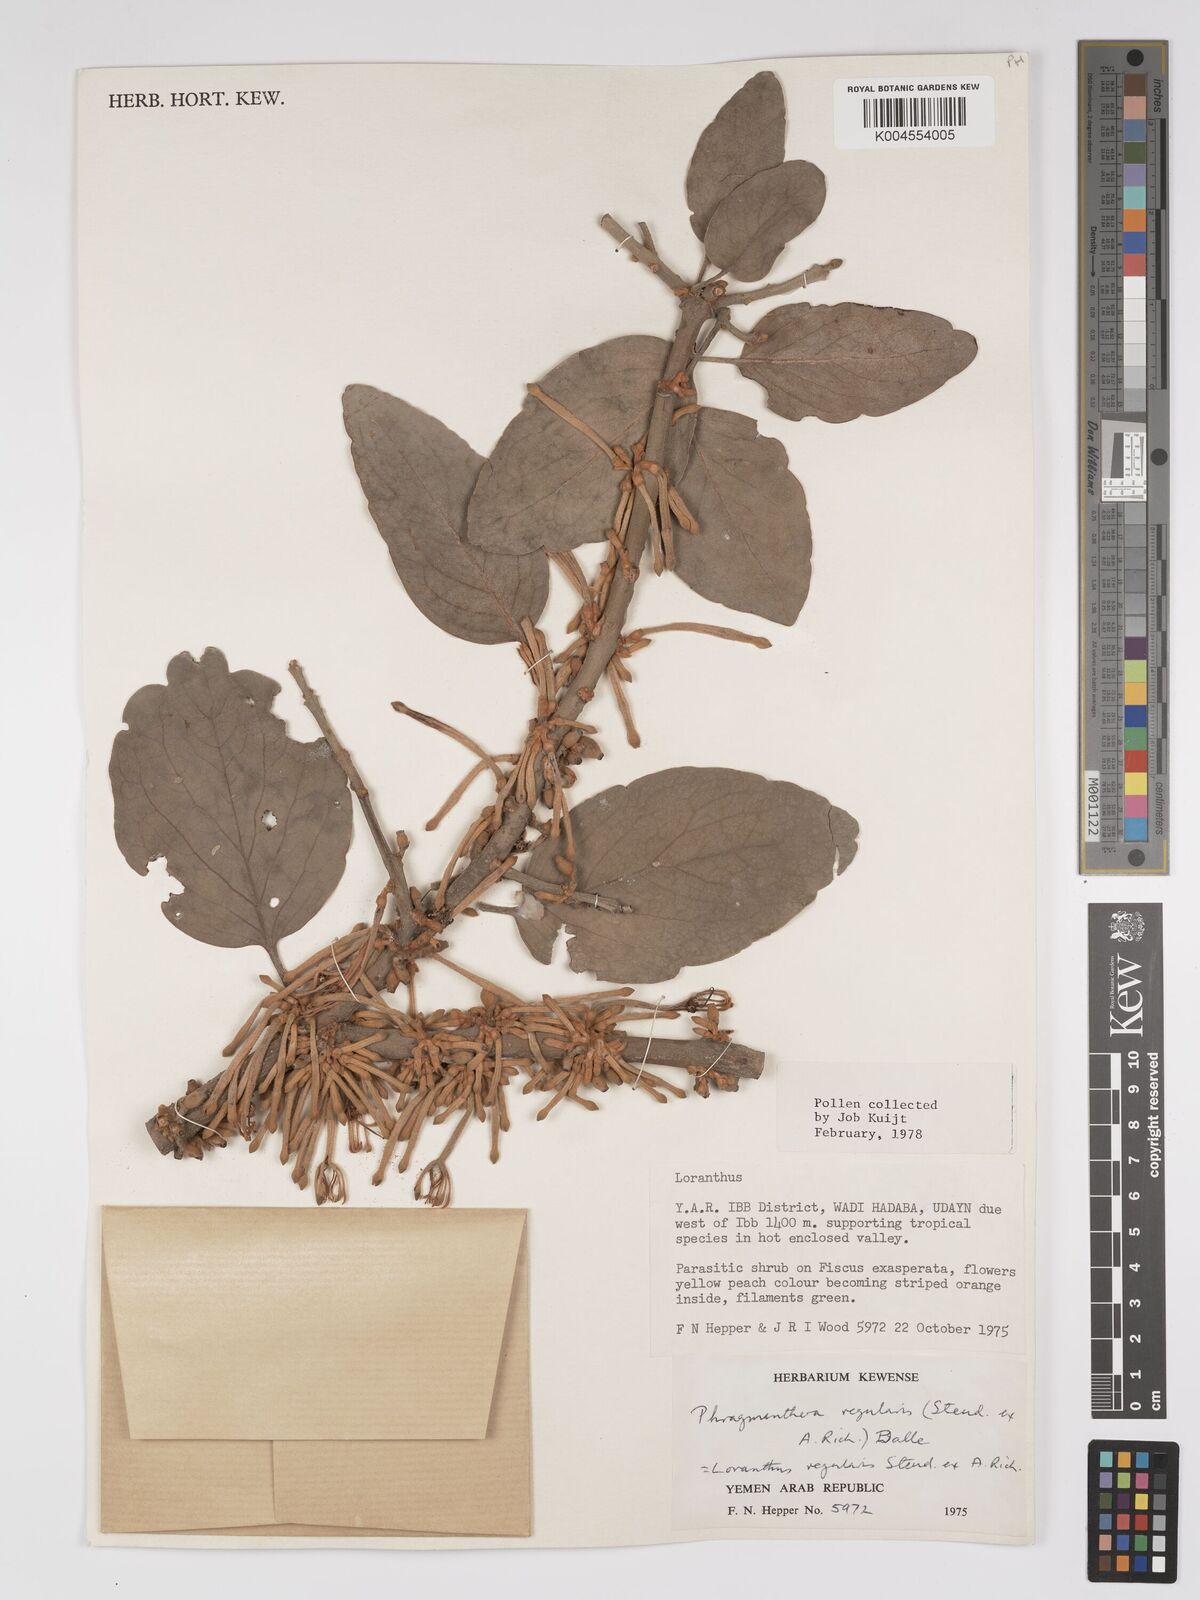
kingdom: Plantae
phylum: Tracheophyta
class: Magnoliopsida
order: Santalales
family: Loranthaceae
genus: Phragmanthera
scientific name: Phragmanthera regularis
